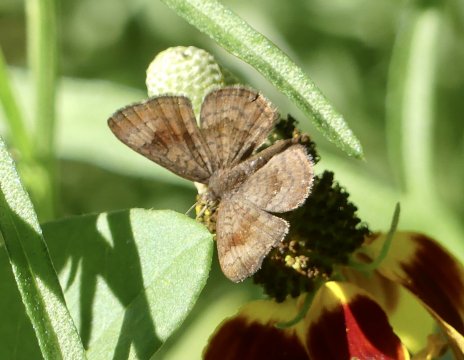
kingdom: Animalia
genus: Calephelis
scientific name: Calephelis nemesis
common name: Fatal Metalmark
